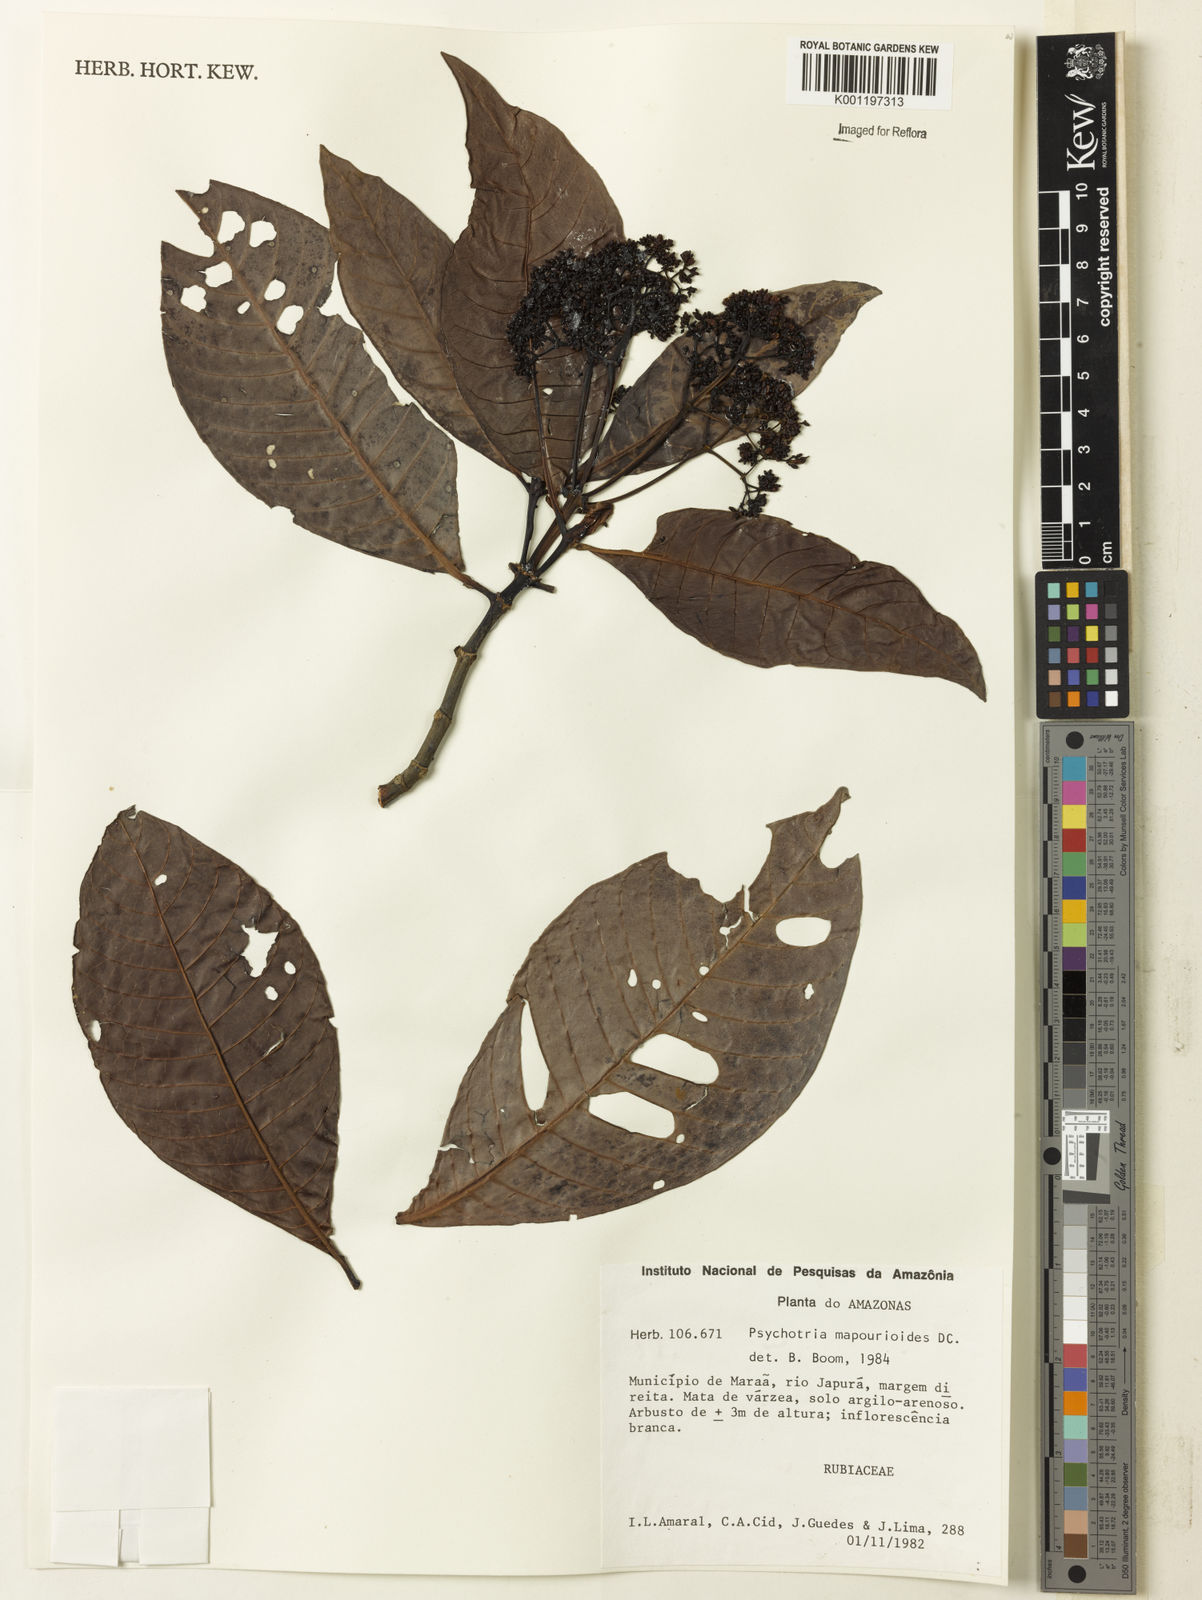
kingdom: Plantae
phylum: Tracheophyta
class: Magnoliopsida
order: Gentianales
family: Rubiaceae
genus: Psychotria
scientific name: Psychotria pedunculosa
